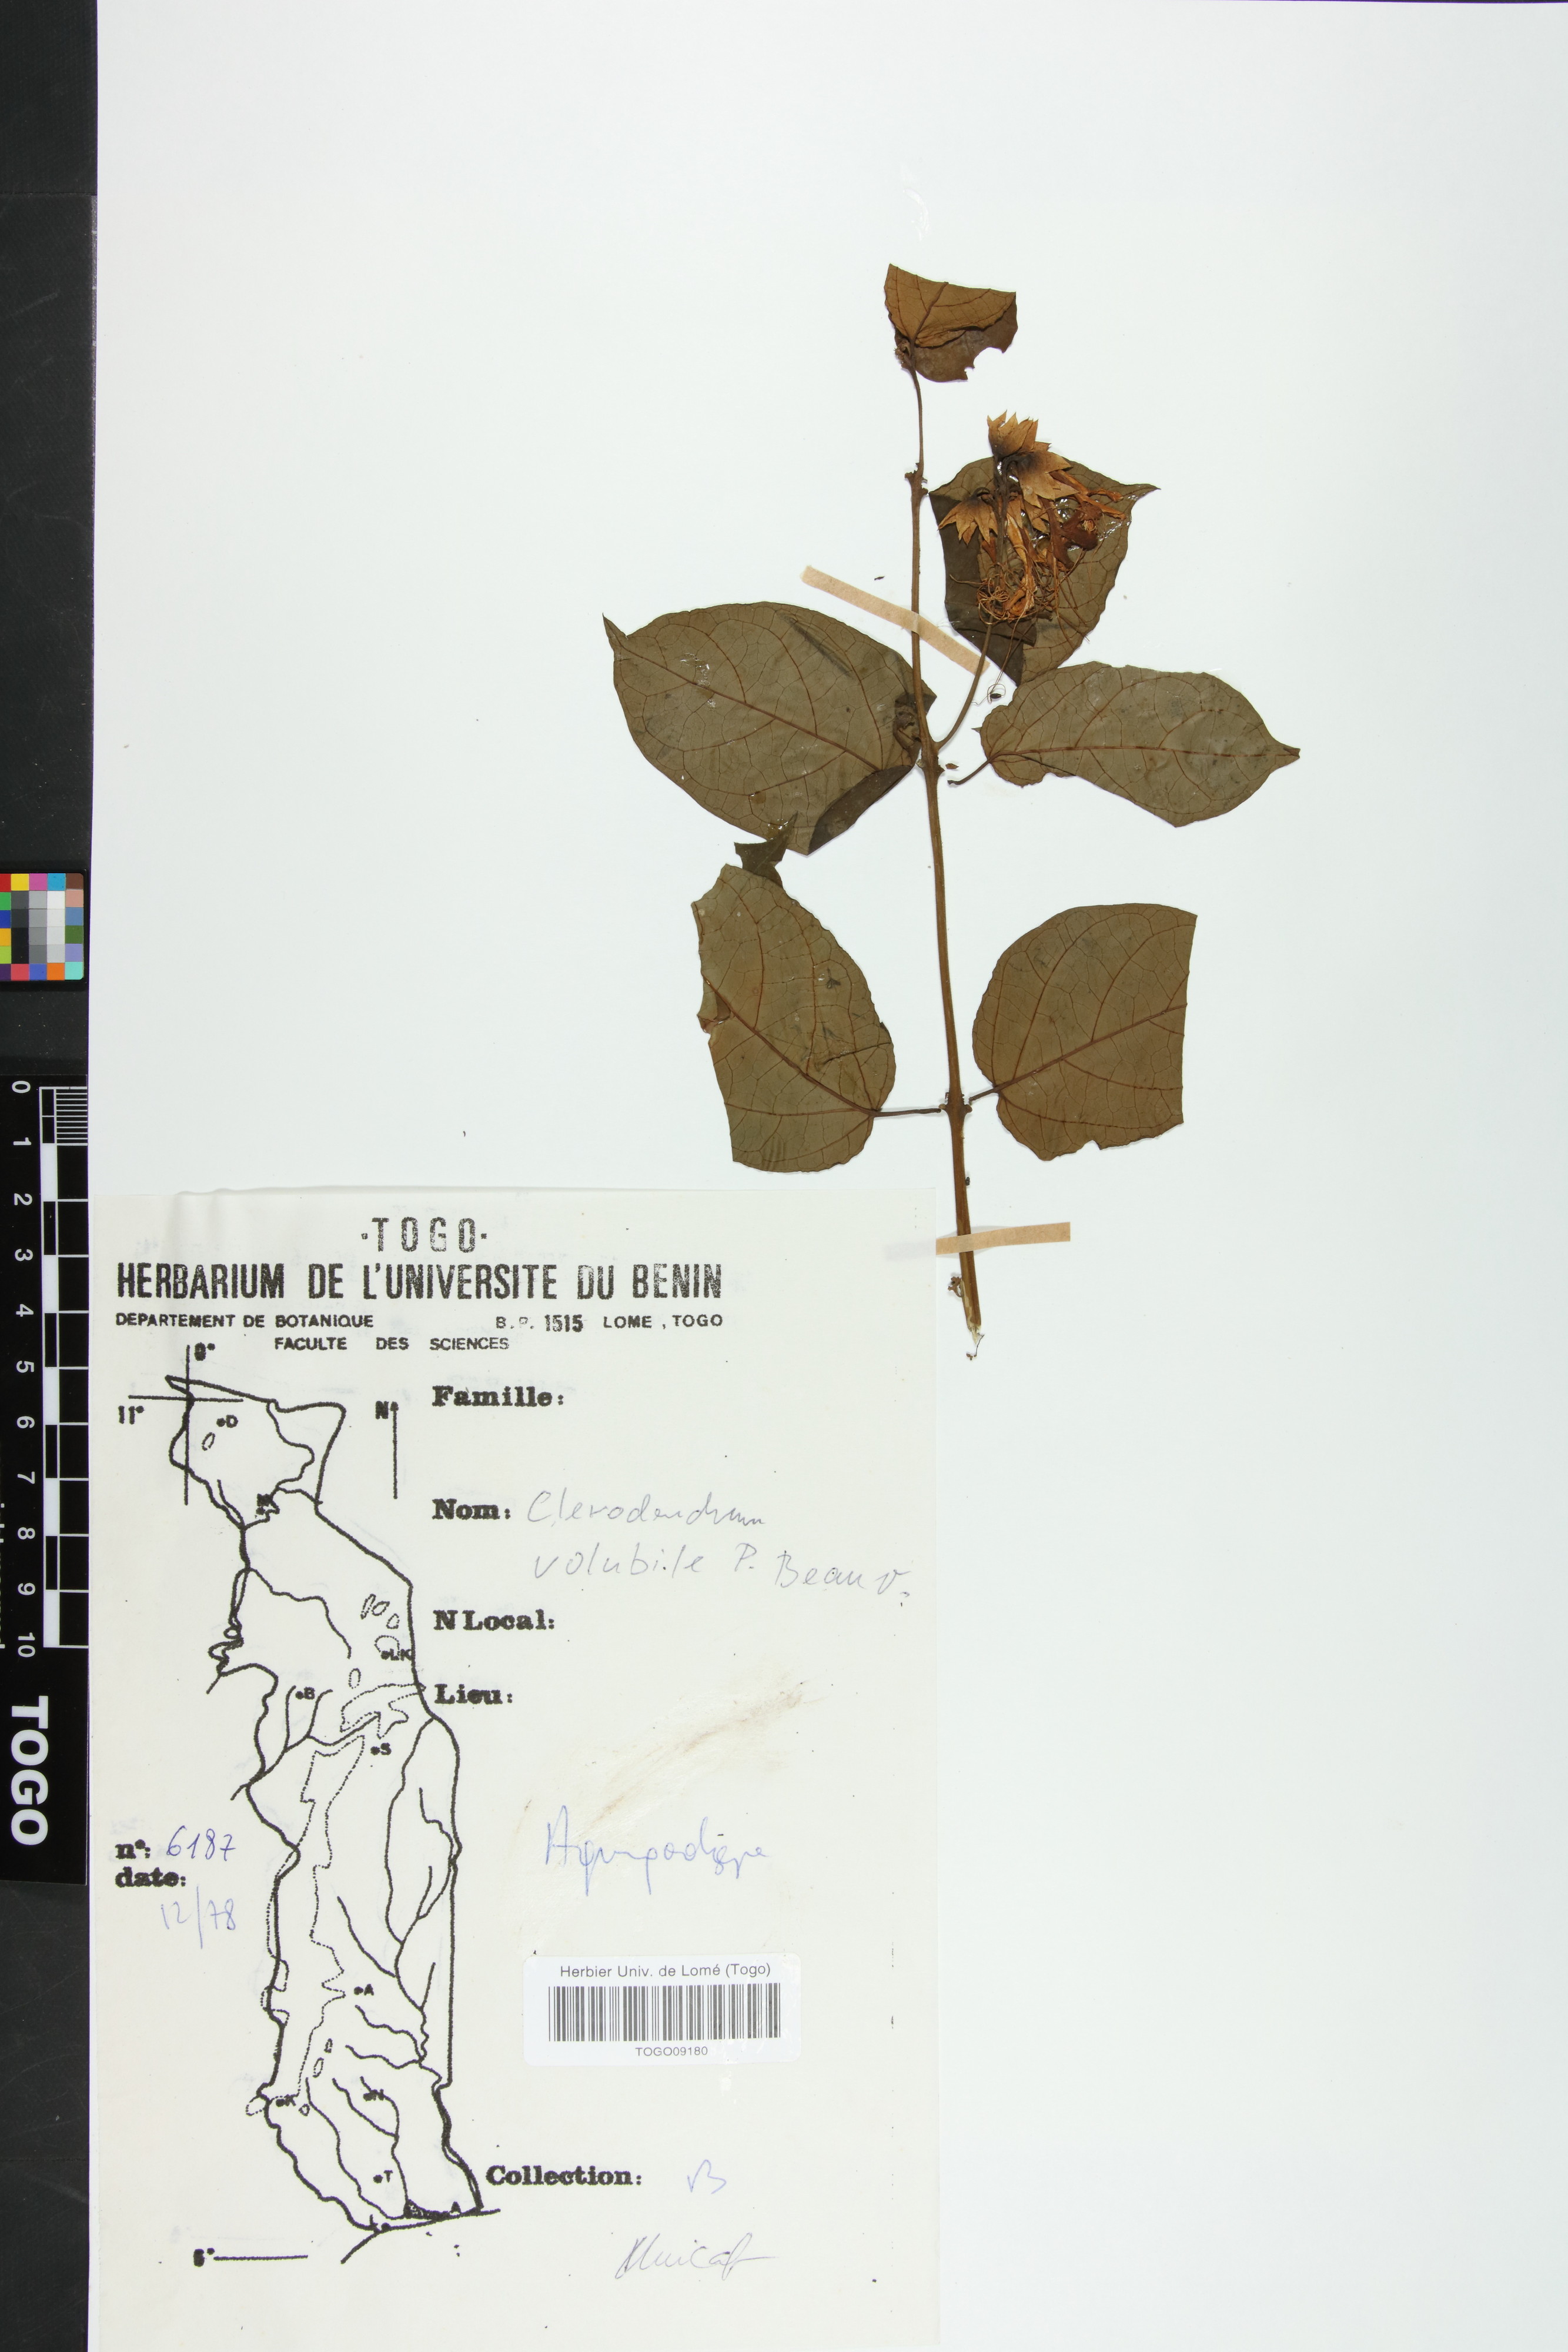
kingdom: Plantae
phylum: Tracheophyta
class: Magnoliopsida
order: Lamiales
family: Lamiaceae
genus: Clerodendrum
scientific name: Clerodendrum volubile
